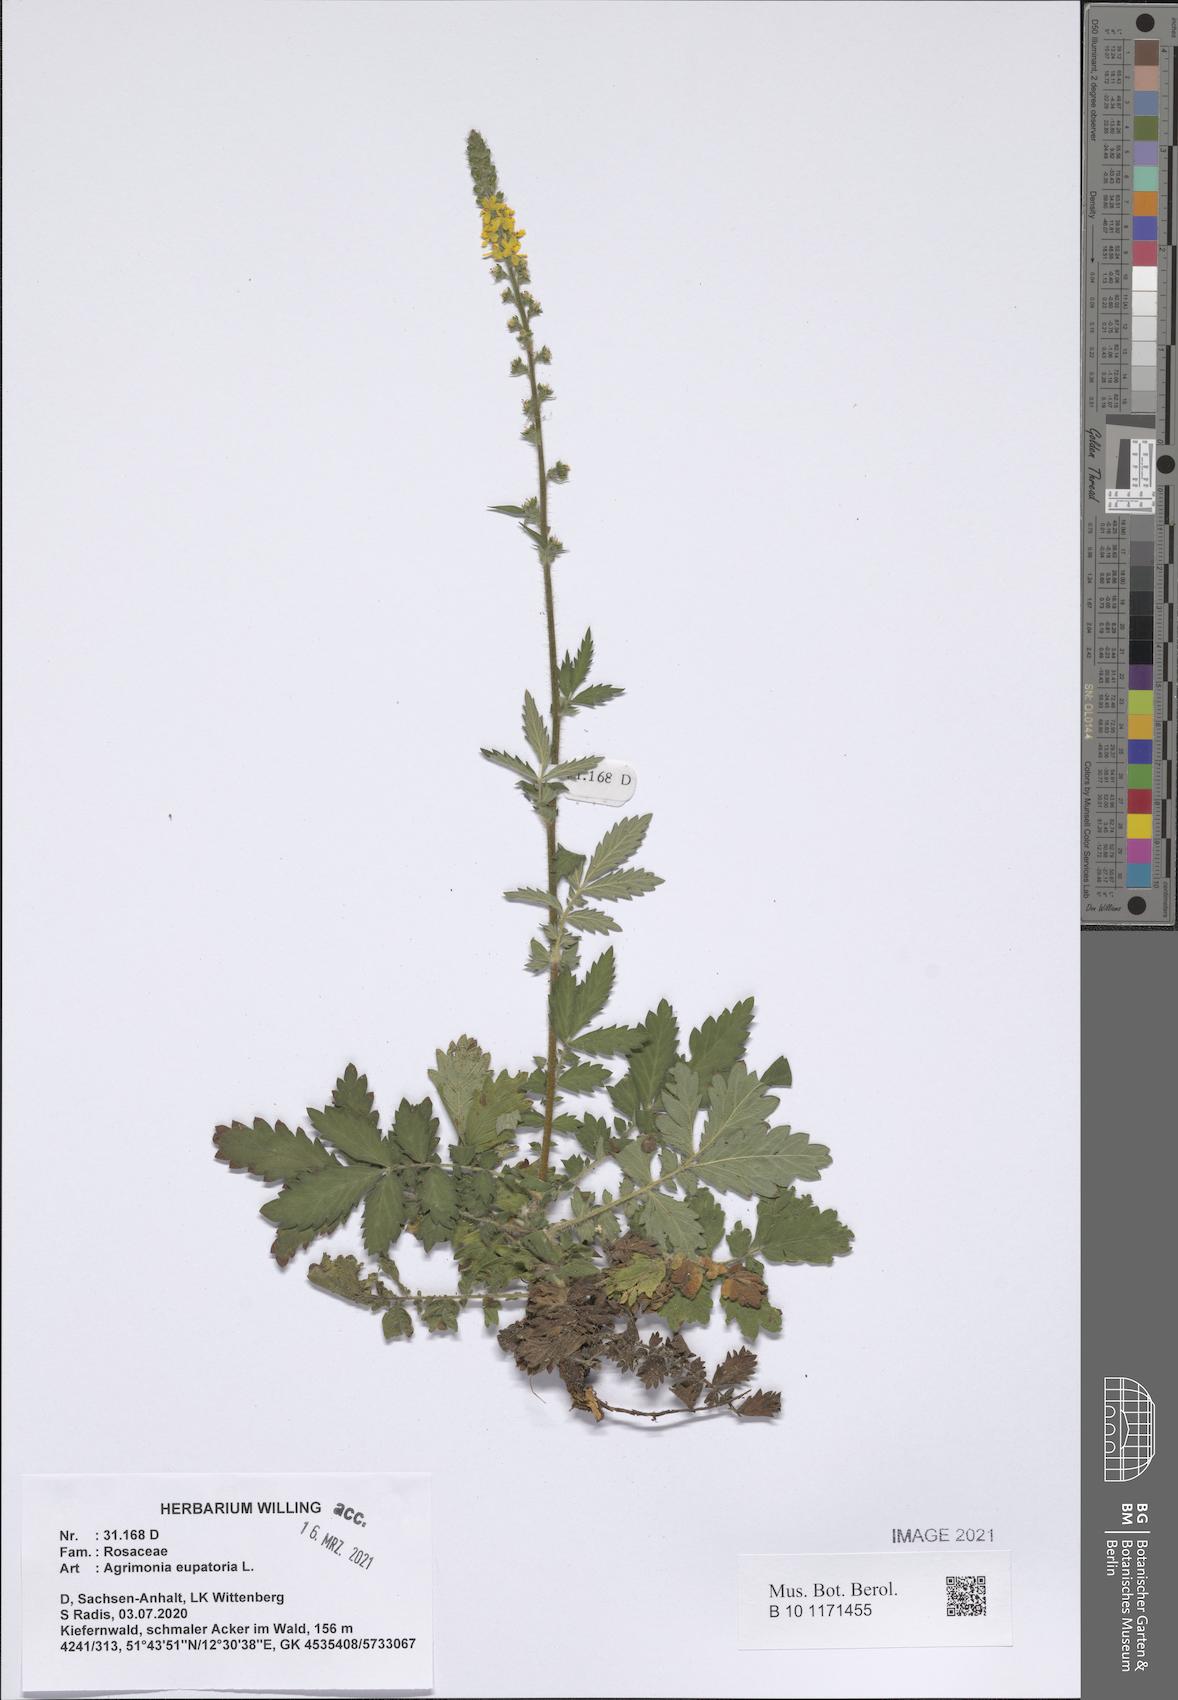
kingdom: Plantae
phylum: Tracheophyta
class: Magnoliopsida
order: Rosales
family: Rosaceae
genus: Agrimonia
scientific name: Agrimonia eupatoria
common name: Agrimony
